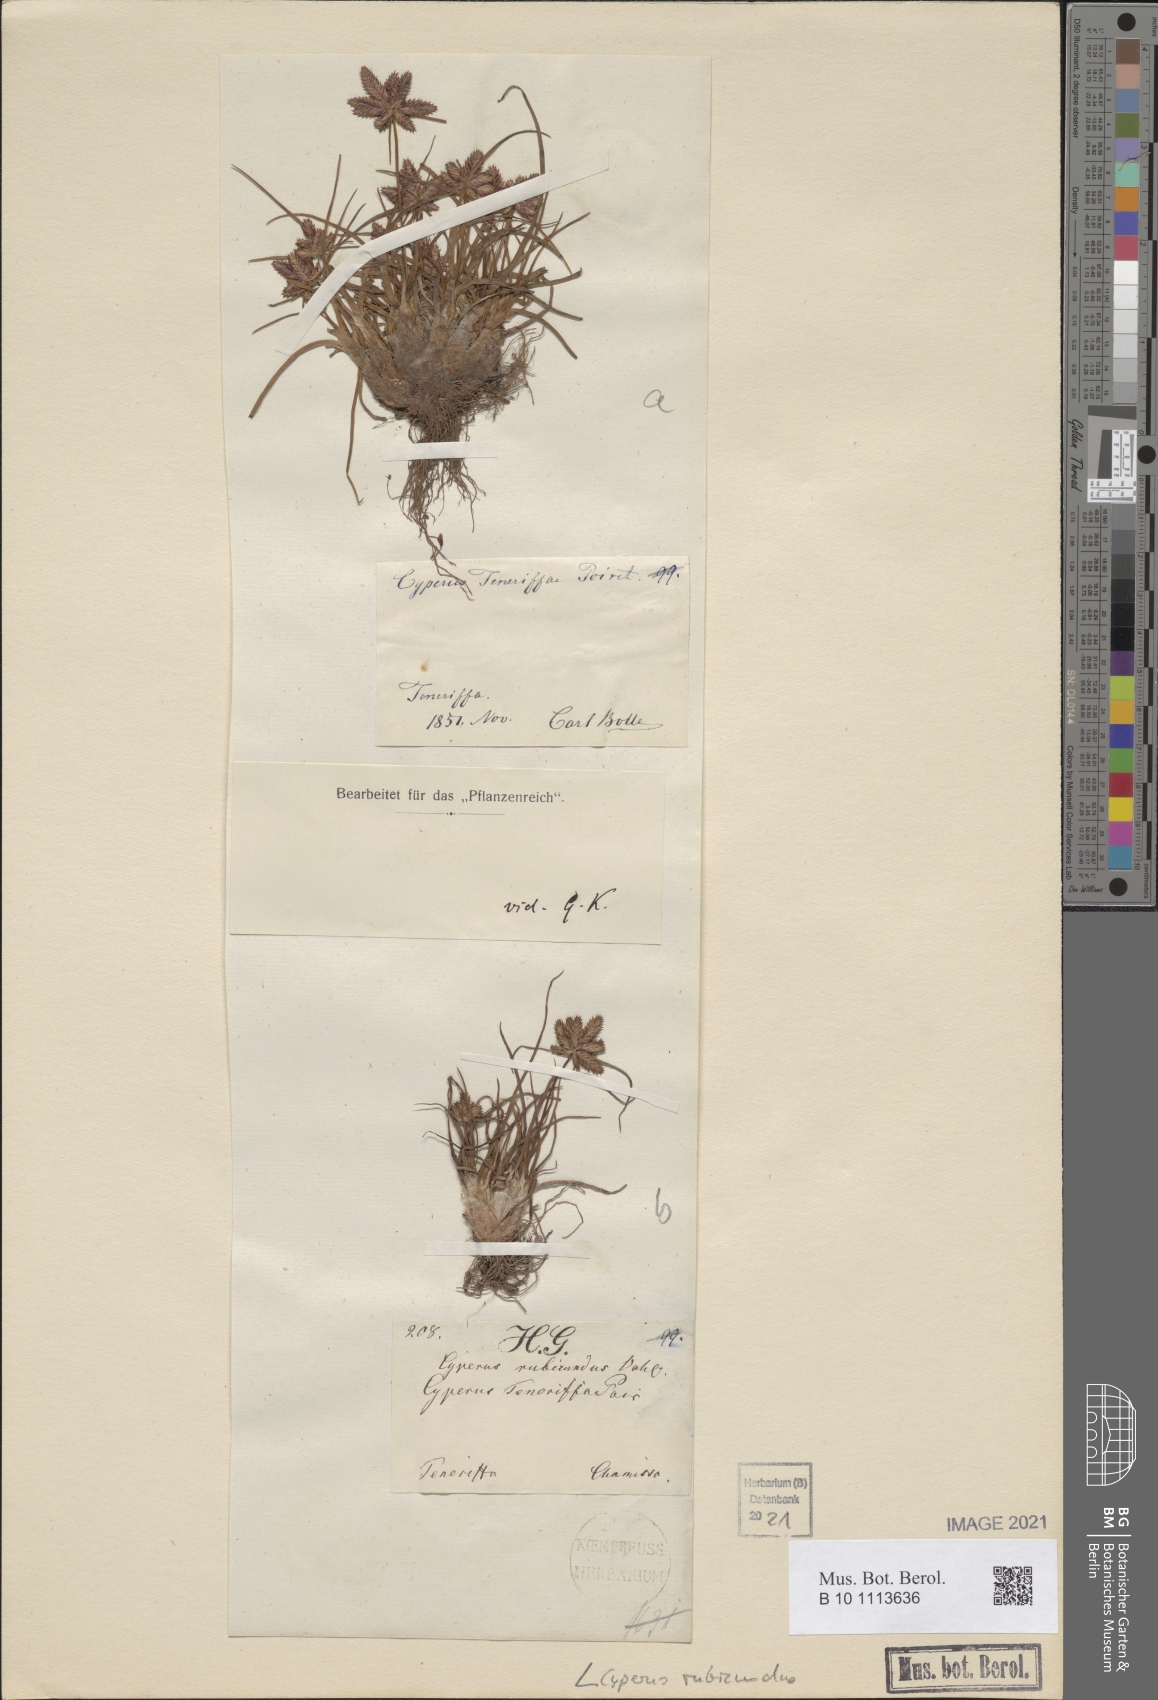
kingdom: Plantae
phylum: Tracheophyta
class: Liliopsida
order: Poales
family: Cyperaceae
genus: Cyperus
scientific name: Cyperus rubicundus
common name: Coco-grass
